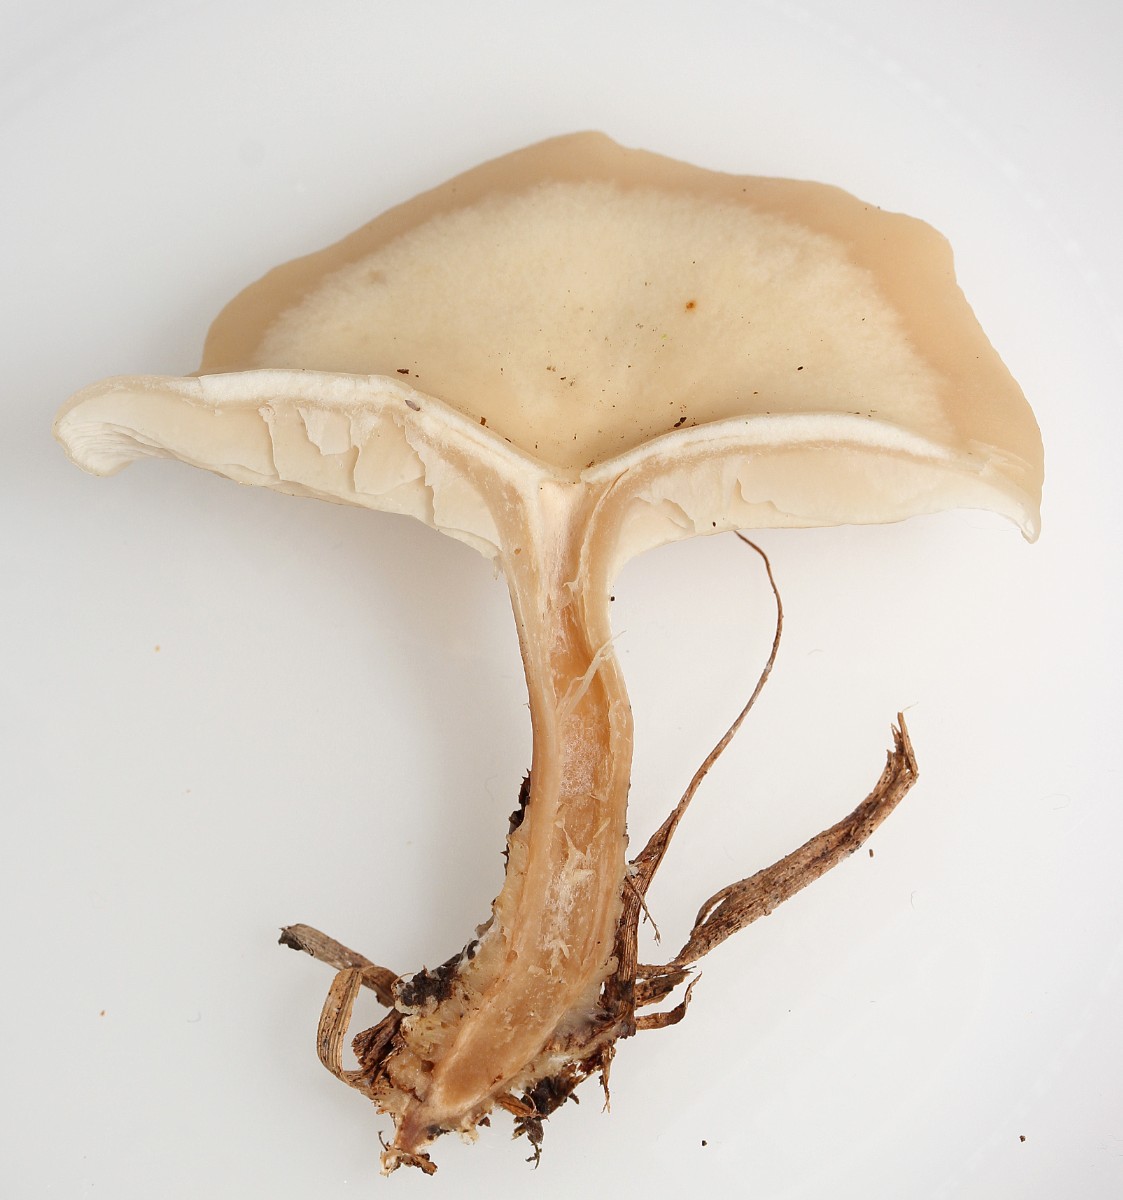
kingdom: Fungi
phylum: Basidiomycota
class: Agaricomycetes
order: Agaricales
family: Tricholomataceae
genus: Clitocybe
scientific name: Clitocybe
